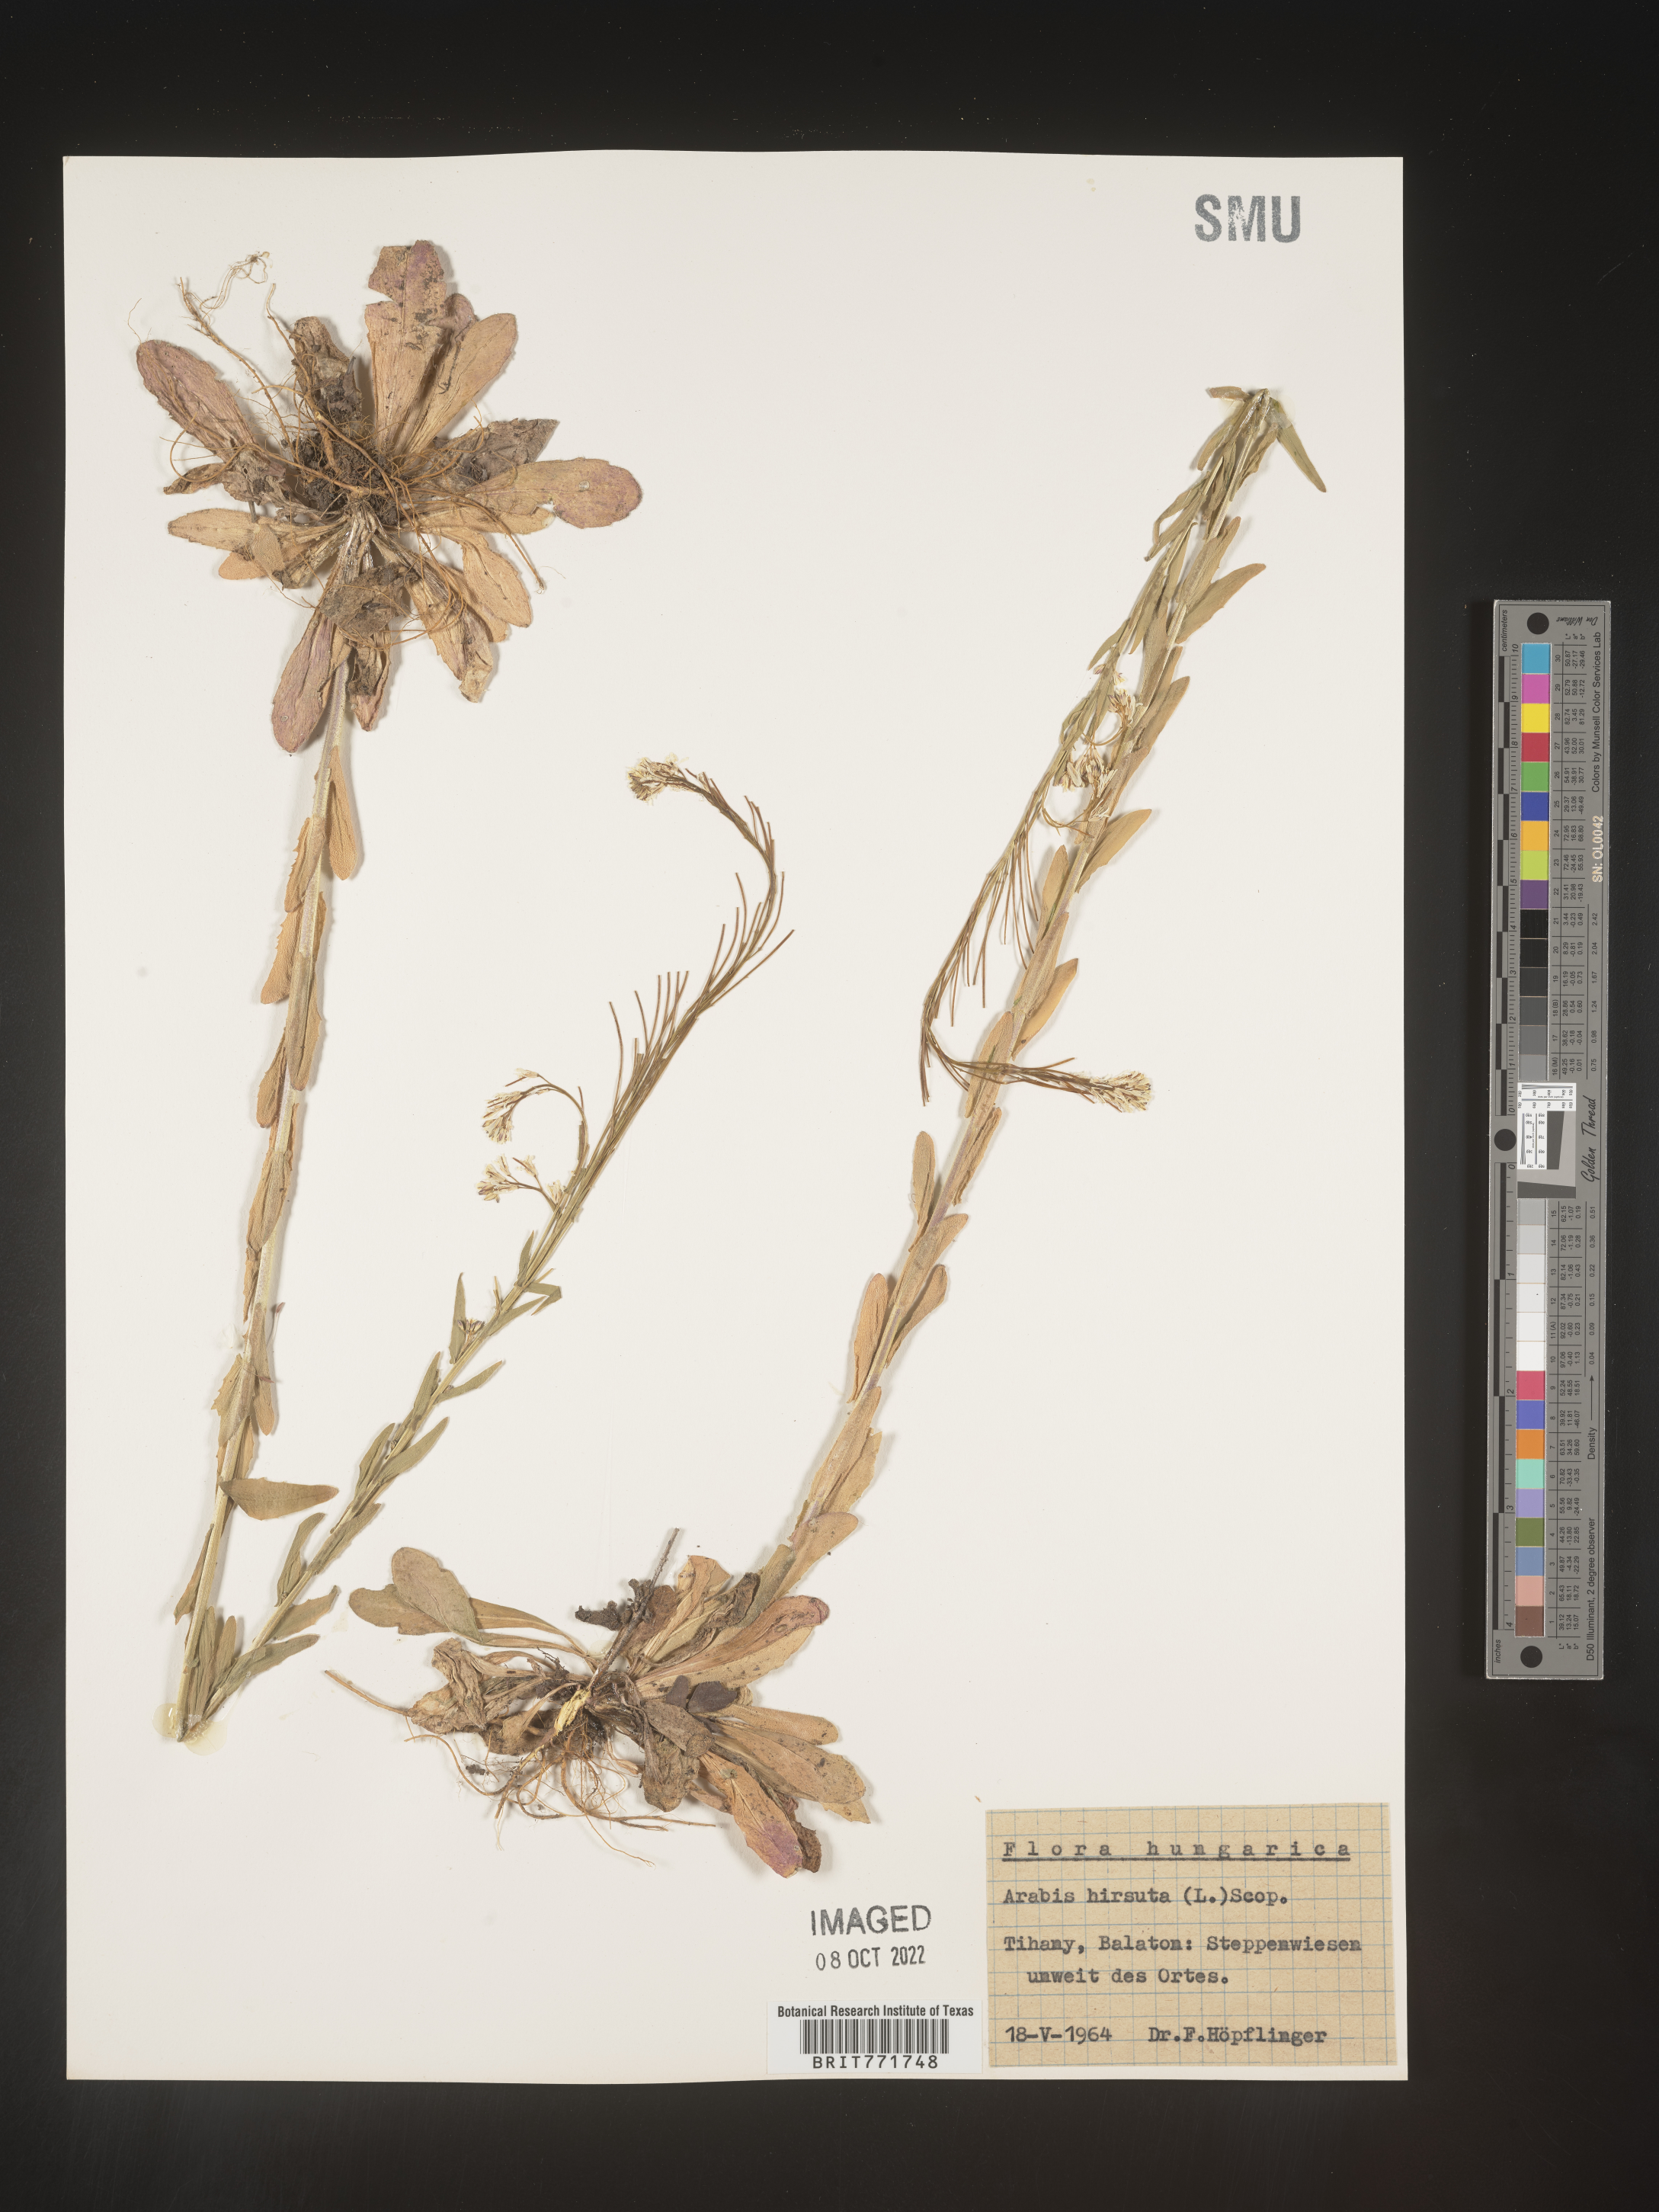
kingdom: Plantae
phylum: Tracheophyta
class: Magnoliopsida
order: Brassicales
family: Brassicaceae
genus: Arabis
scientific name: Arabis
